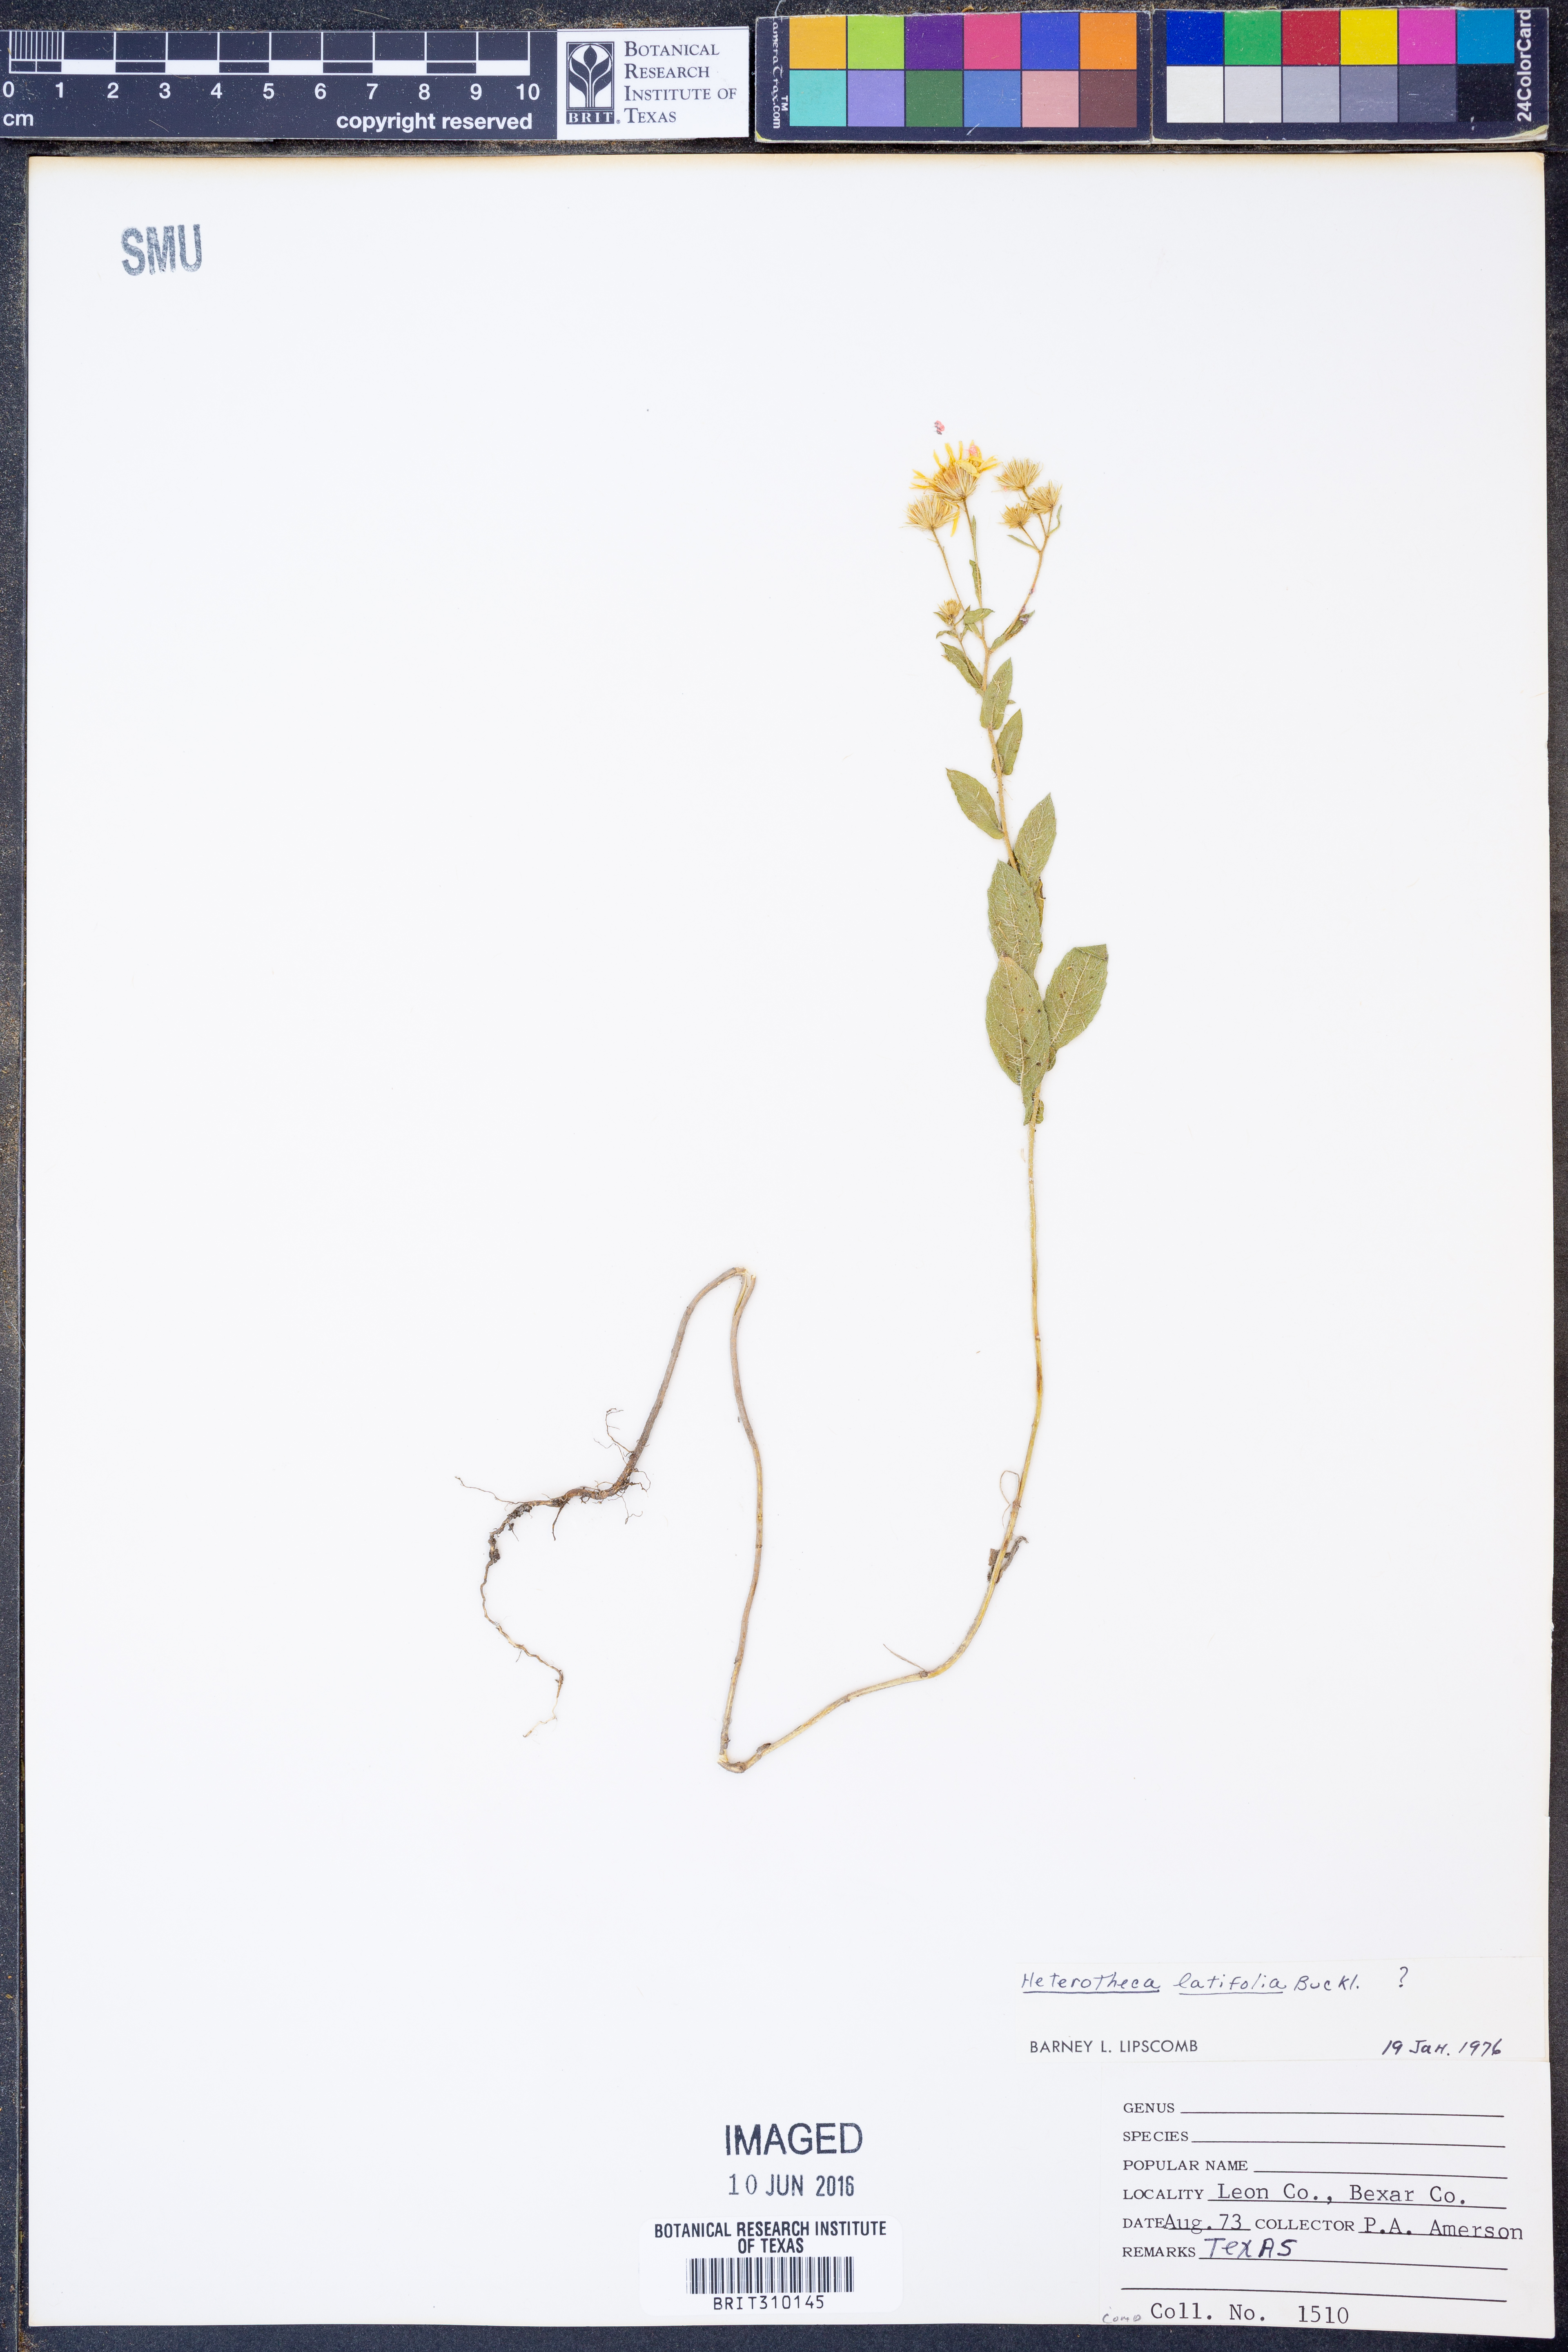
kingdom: Plantae
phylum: Tracheophyta
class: Magnoliopsida
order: Asterales
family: Asteraceae
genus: Heterotheca
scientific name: Heterotheca subaxillaris
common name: Camphorweed
